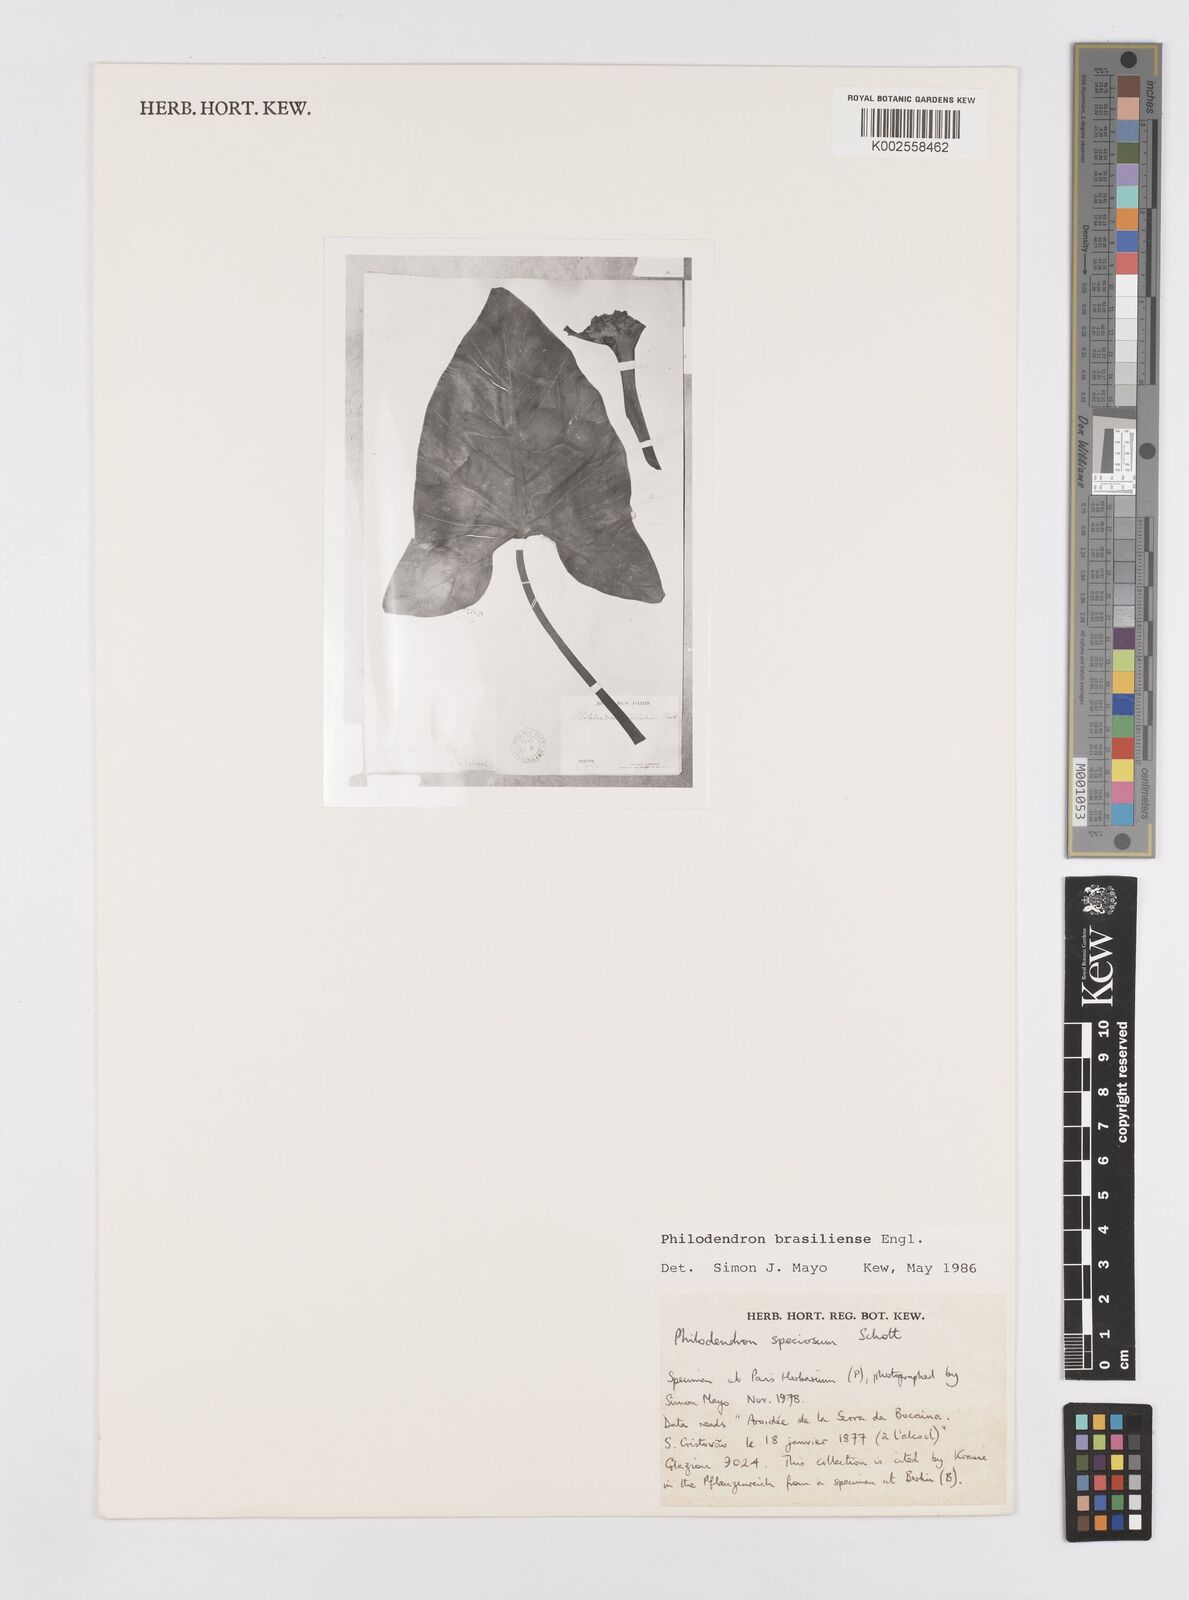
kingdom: Plantae
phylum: Tracheophyta
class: Liliopsida
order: Alismatales
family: Araceae
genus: Thaumatophyllum
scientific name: Thaumatophyllum brasiliense
